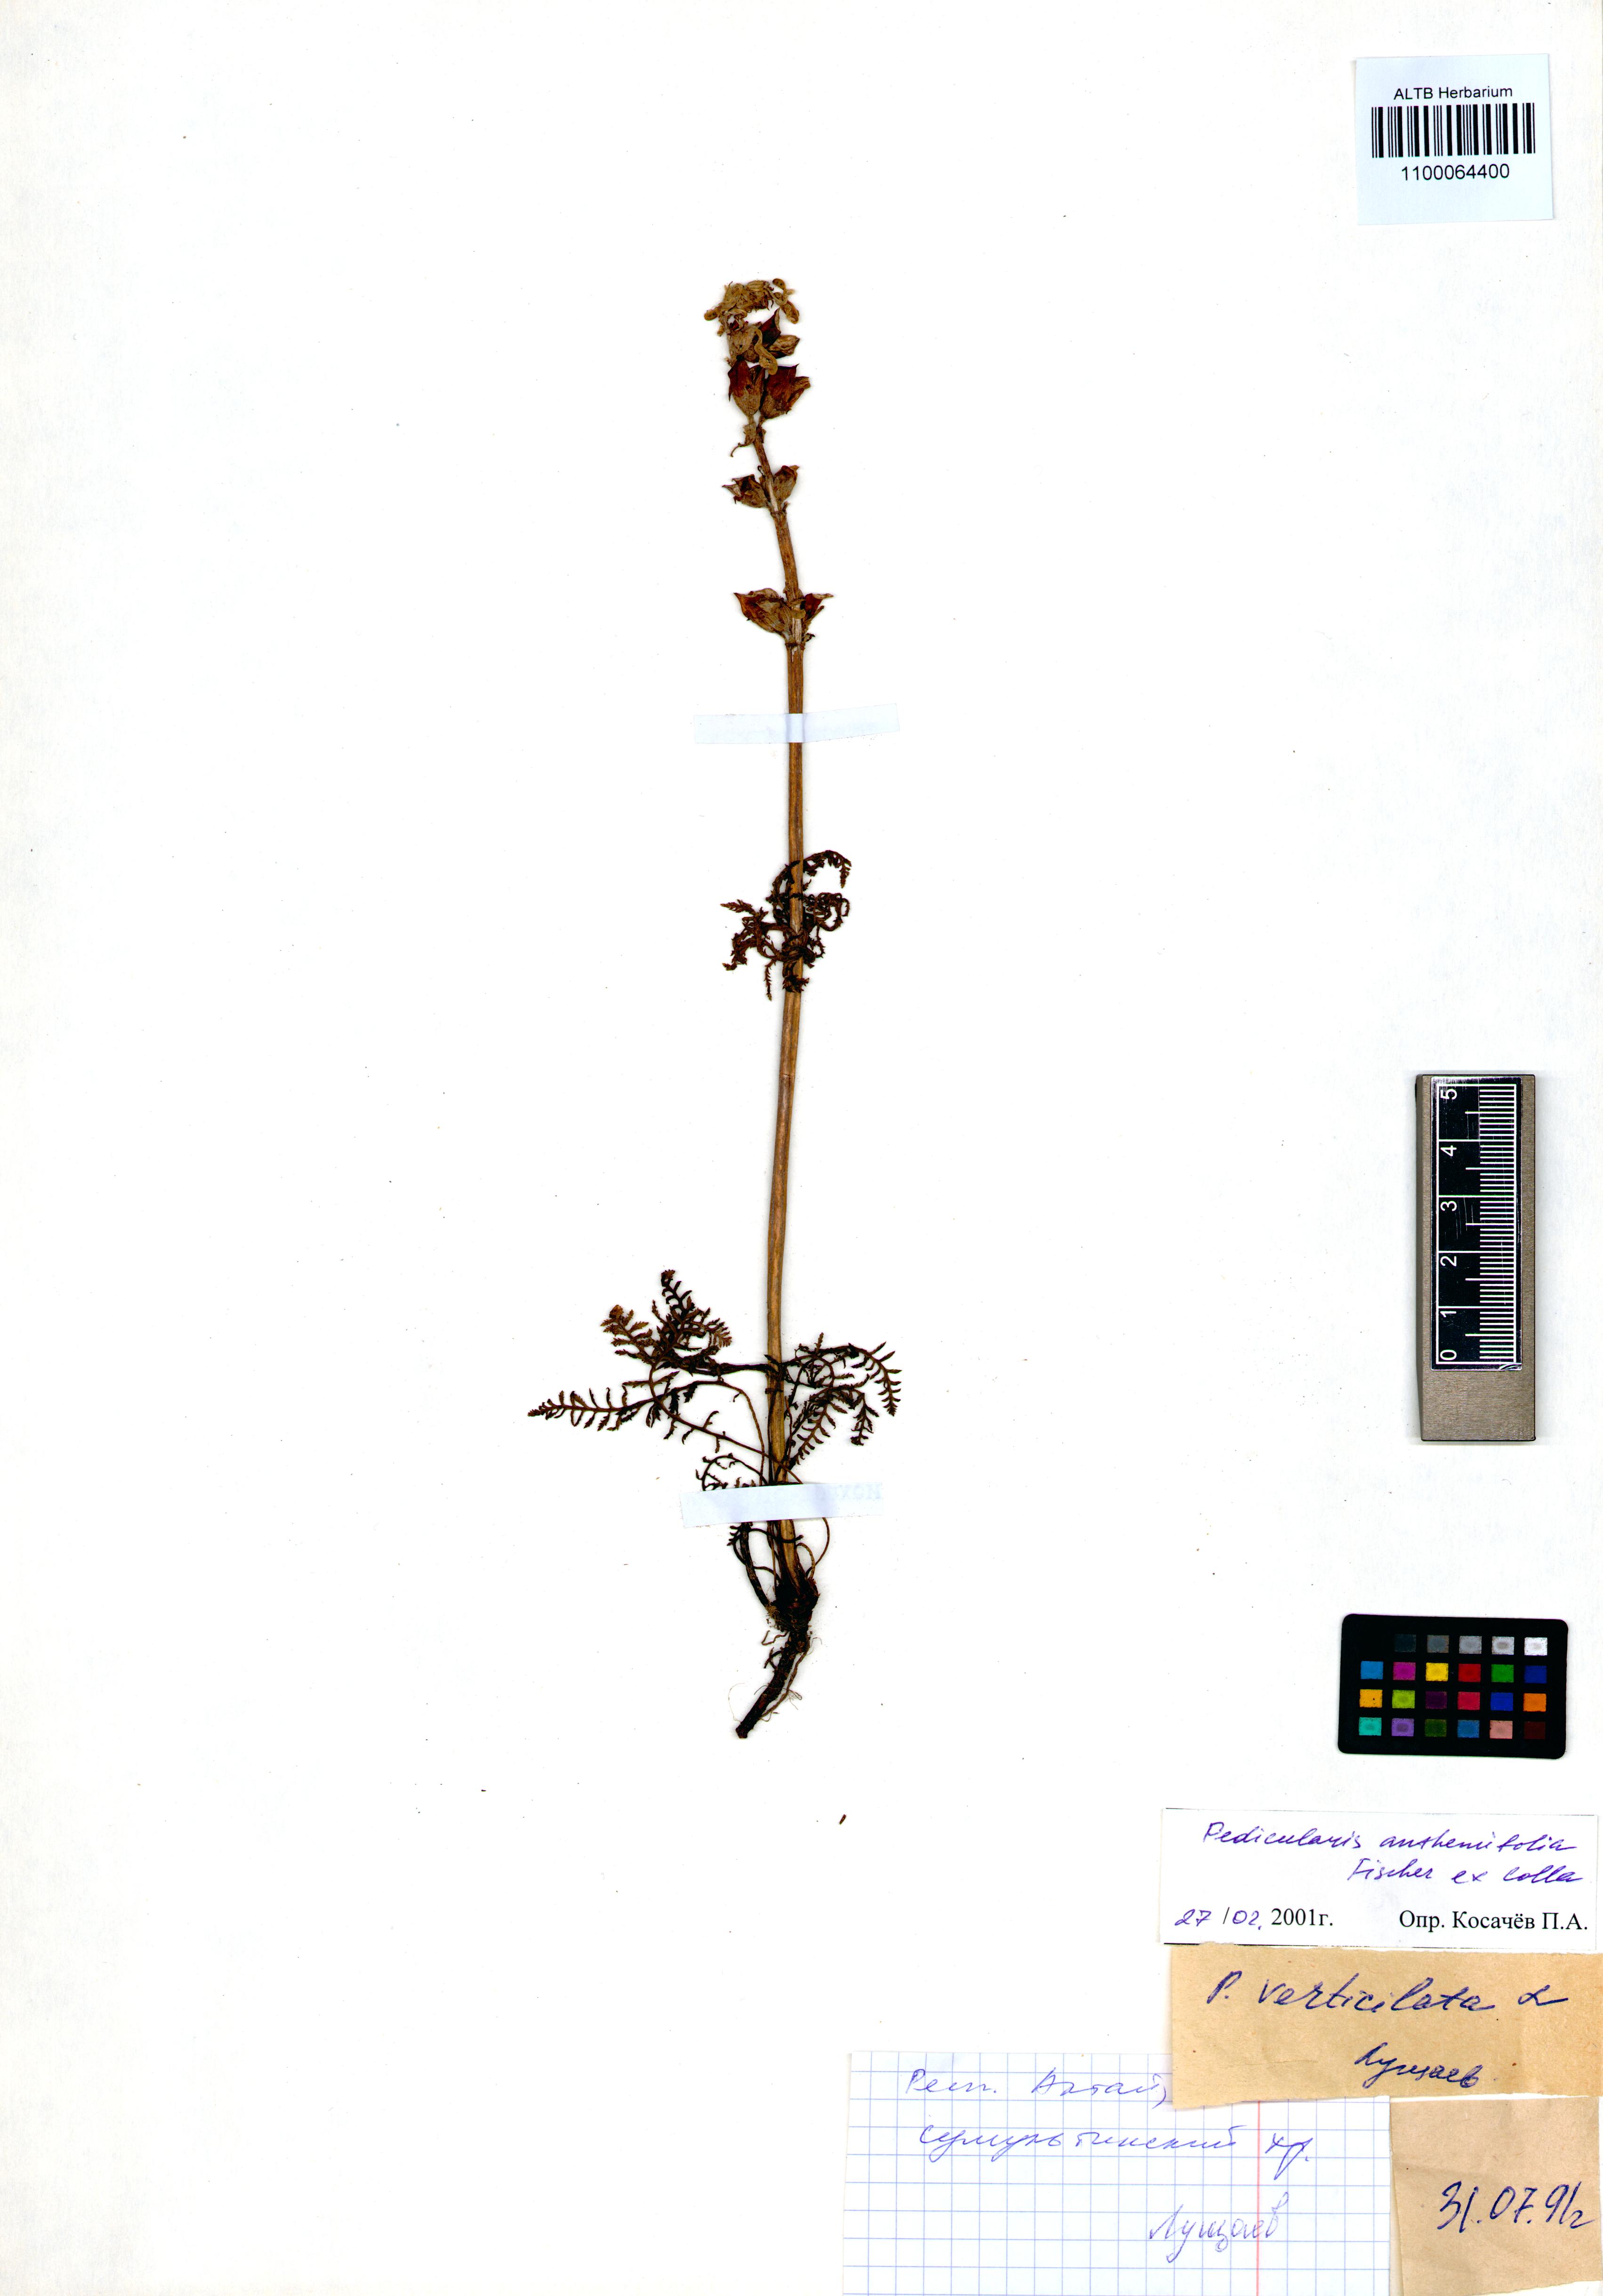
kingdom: Plantae
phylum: Tracheophyta
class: Magnoliopsida
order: Lamiales
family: Orobanchaceae
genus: Pedicularis
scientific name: Pedicularis anthemifolia
